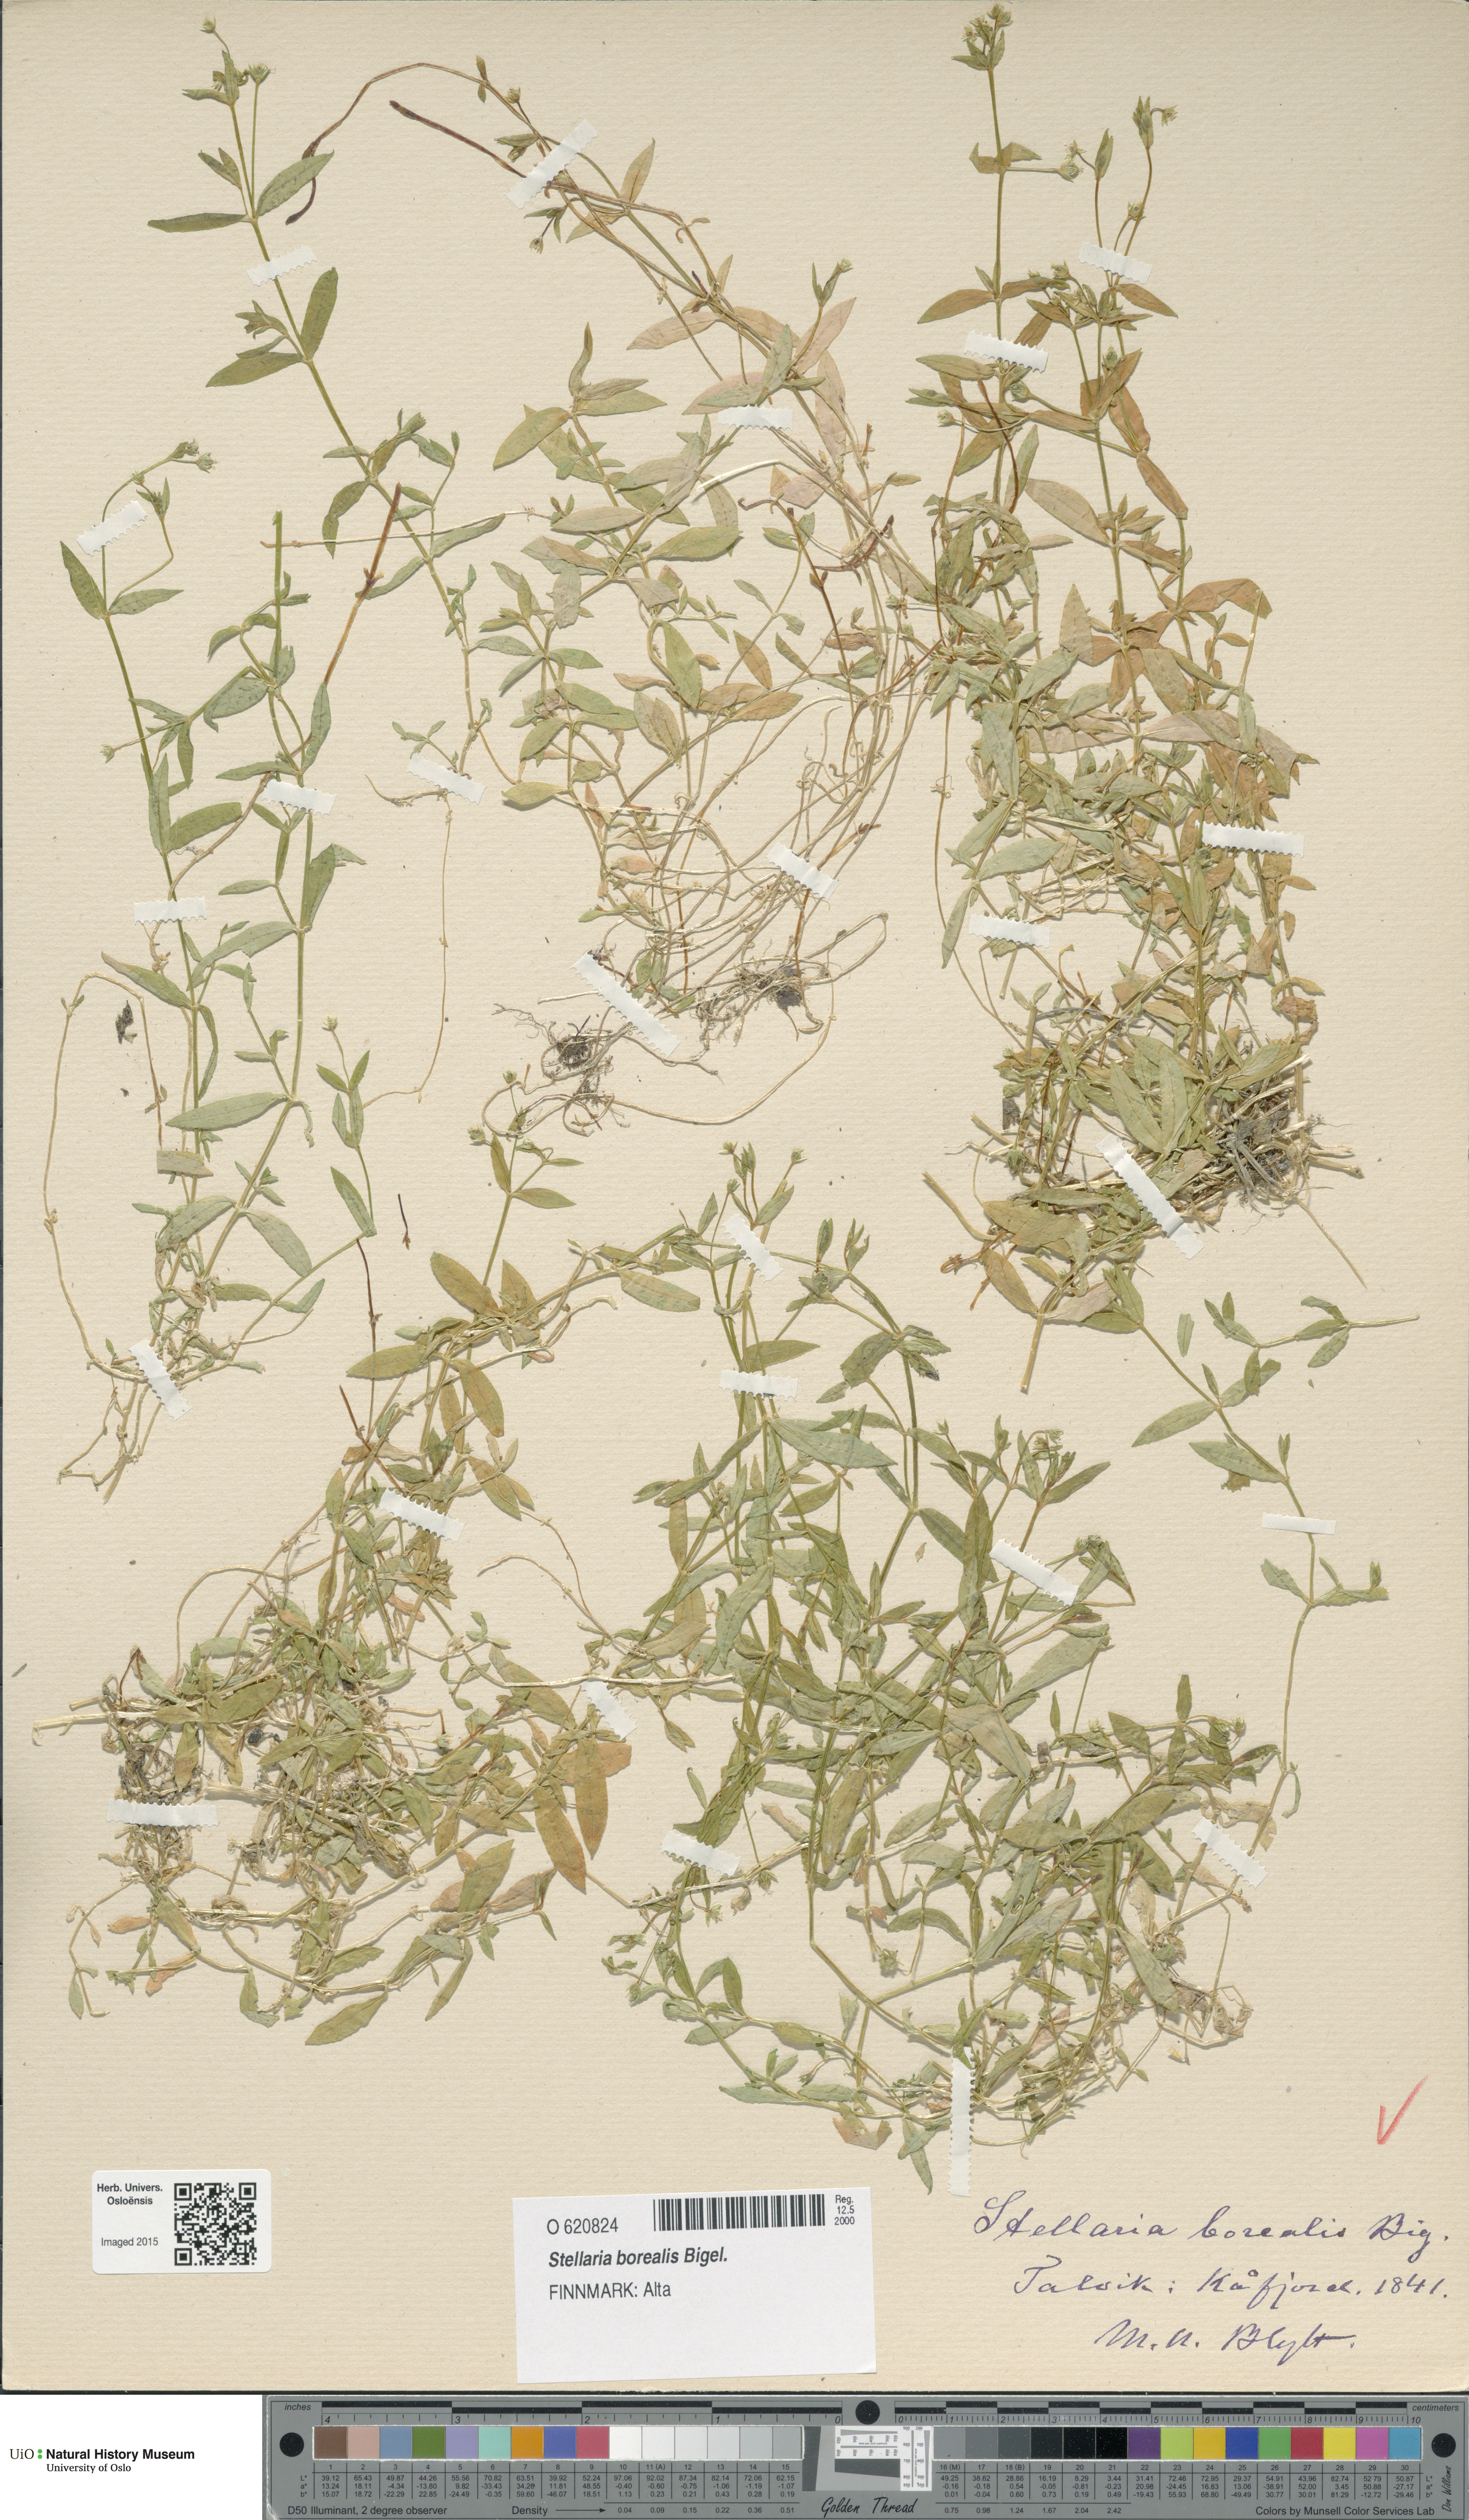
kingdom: Plantae
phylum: Tracheophyta
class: Magnoliopsida
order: Caryophyllales
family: Caryophyllaceae
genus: Stellaria
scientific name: Stellaria borealis
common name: Boreal starwort
